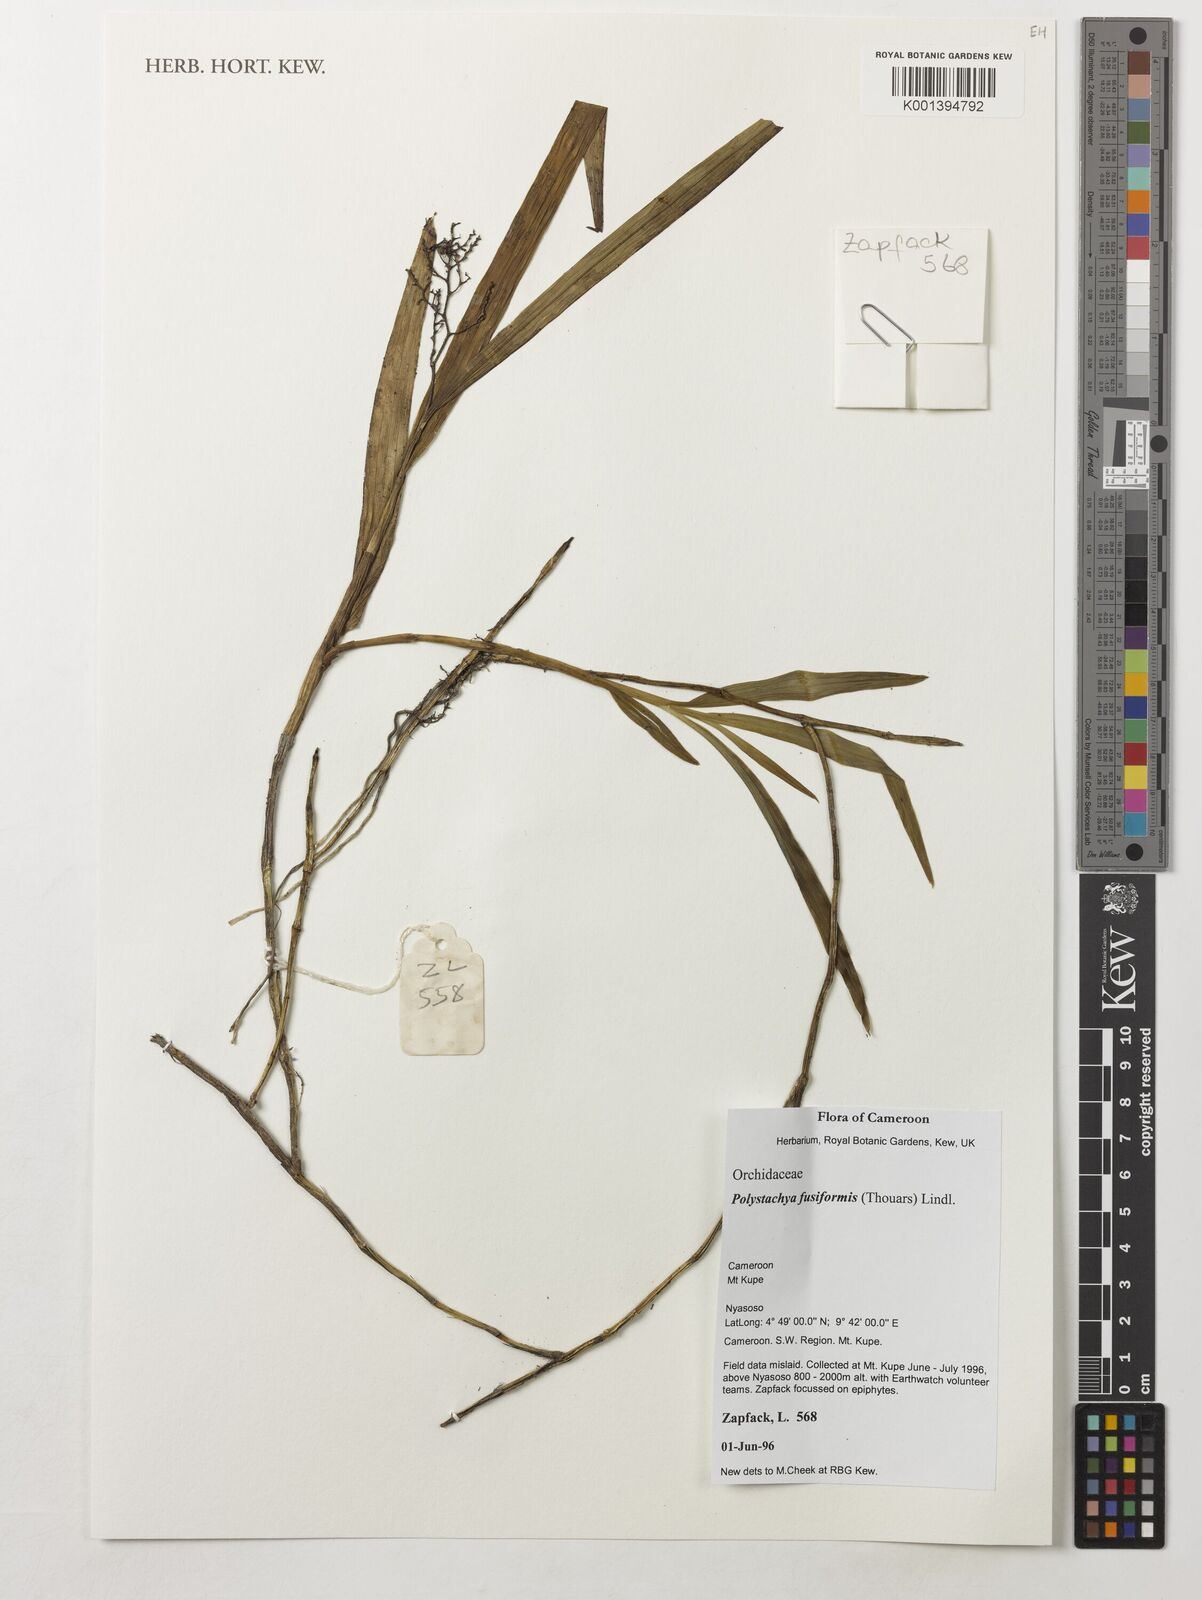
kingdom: Plantae
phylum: Tracheophyta
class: Liliopsida
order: Asparagales
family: Orchidaceae
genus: Polystachya
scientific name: Polystachya fusiformis
